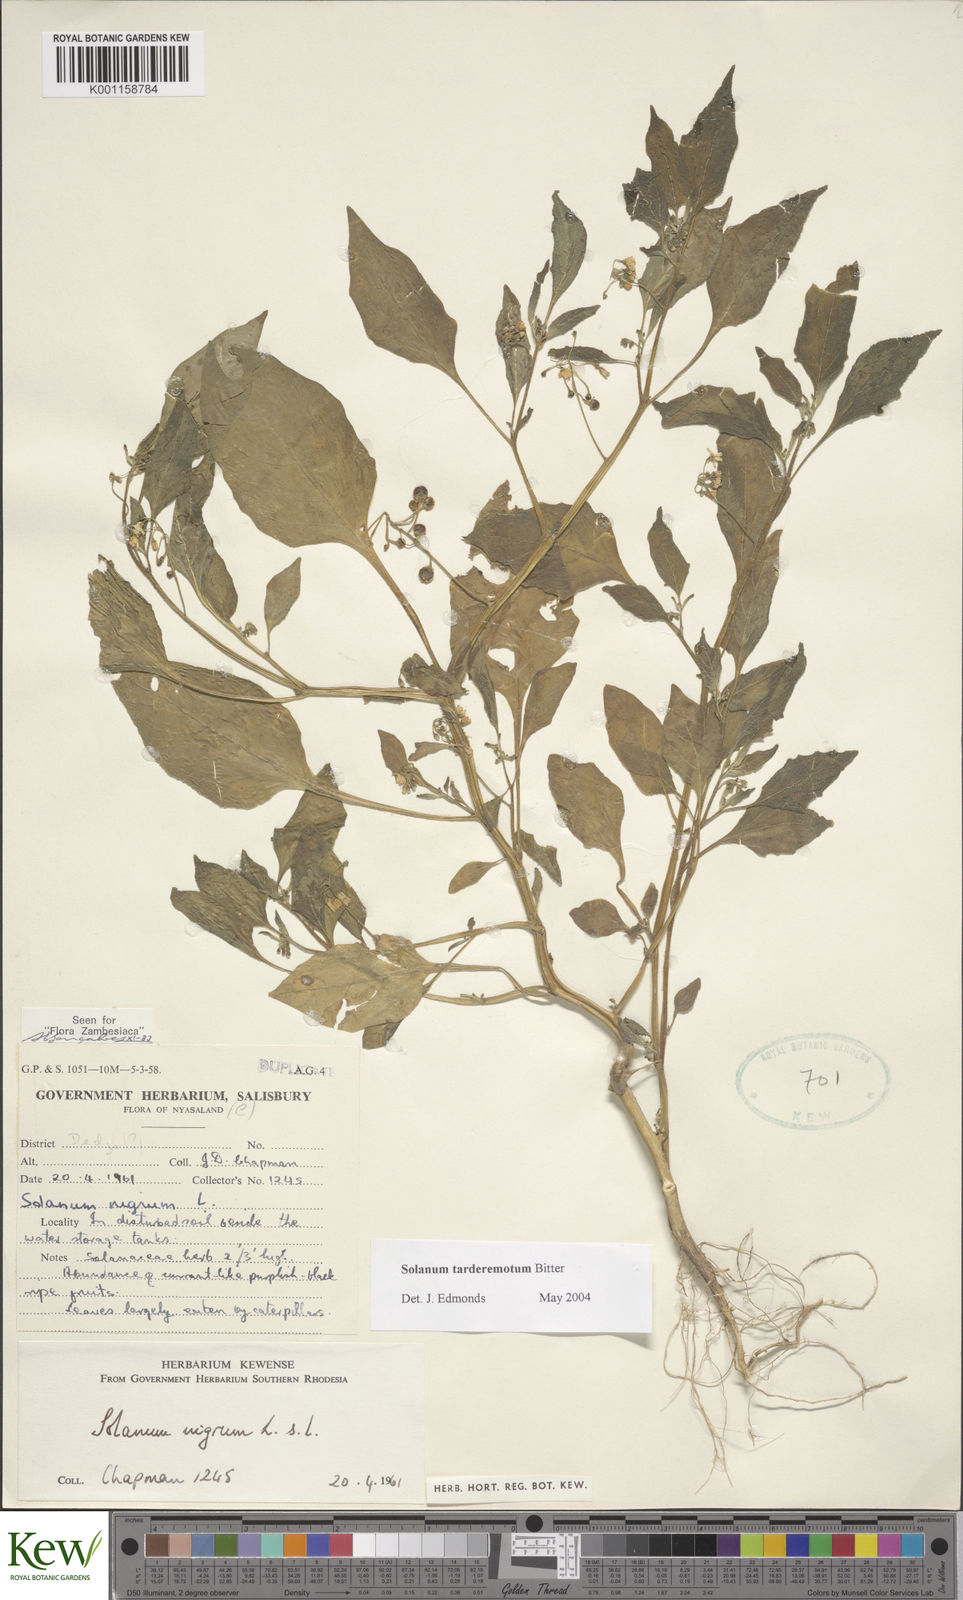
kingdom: Plantae
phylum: Tracheophyta
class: Magnoliopsida
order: Solanales
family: Solanaceae
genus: Solanum
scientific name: Solanum tarderemotum
